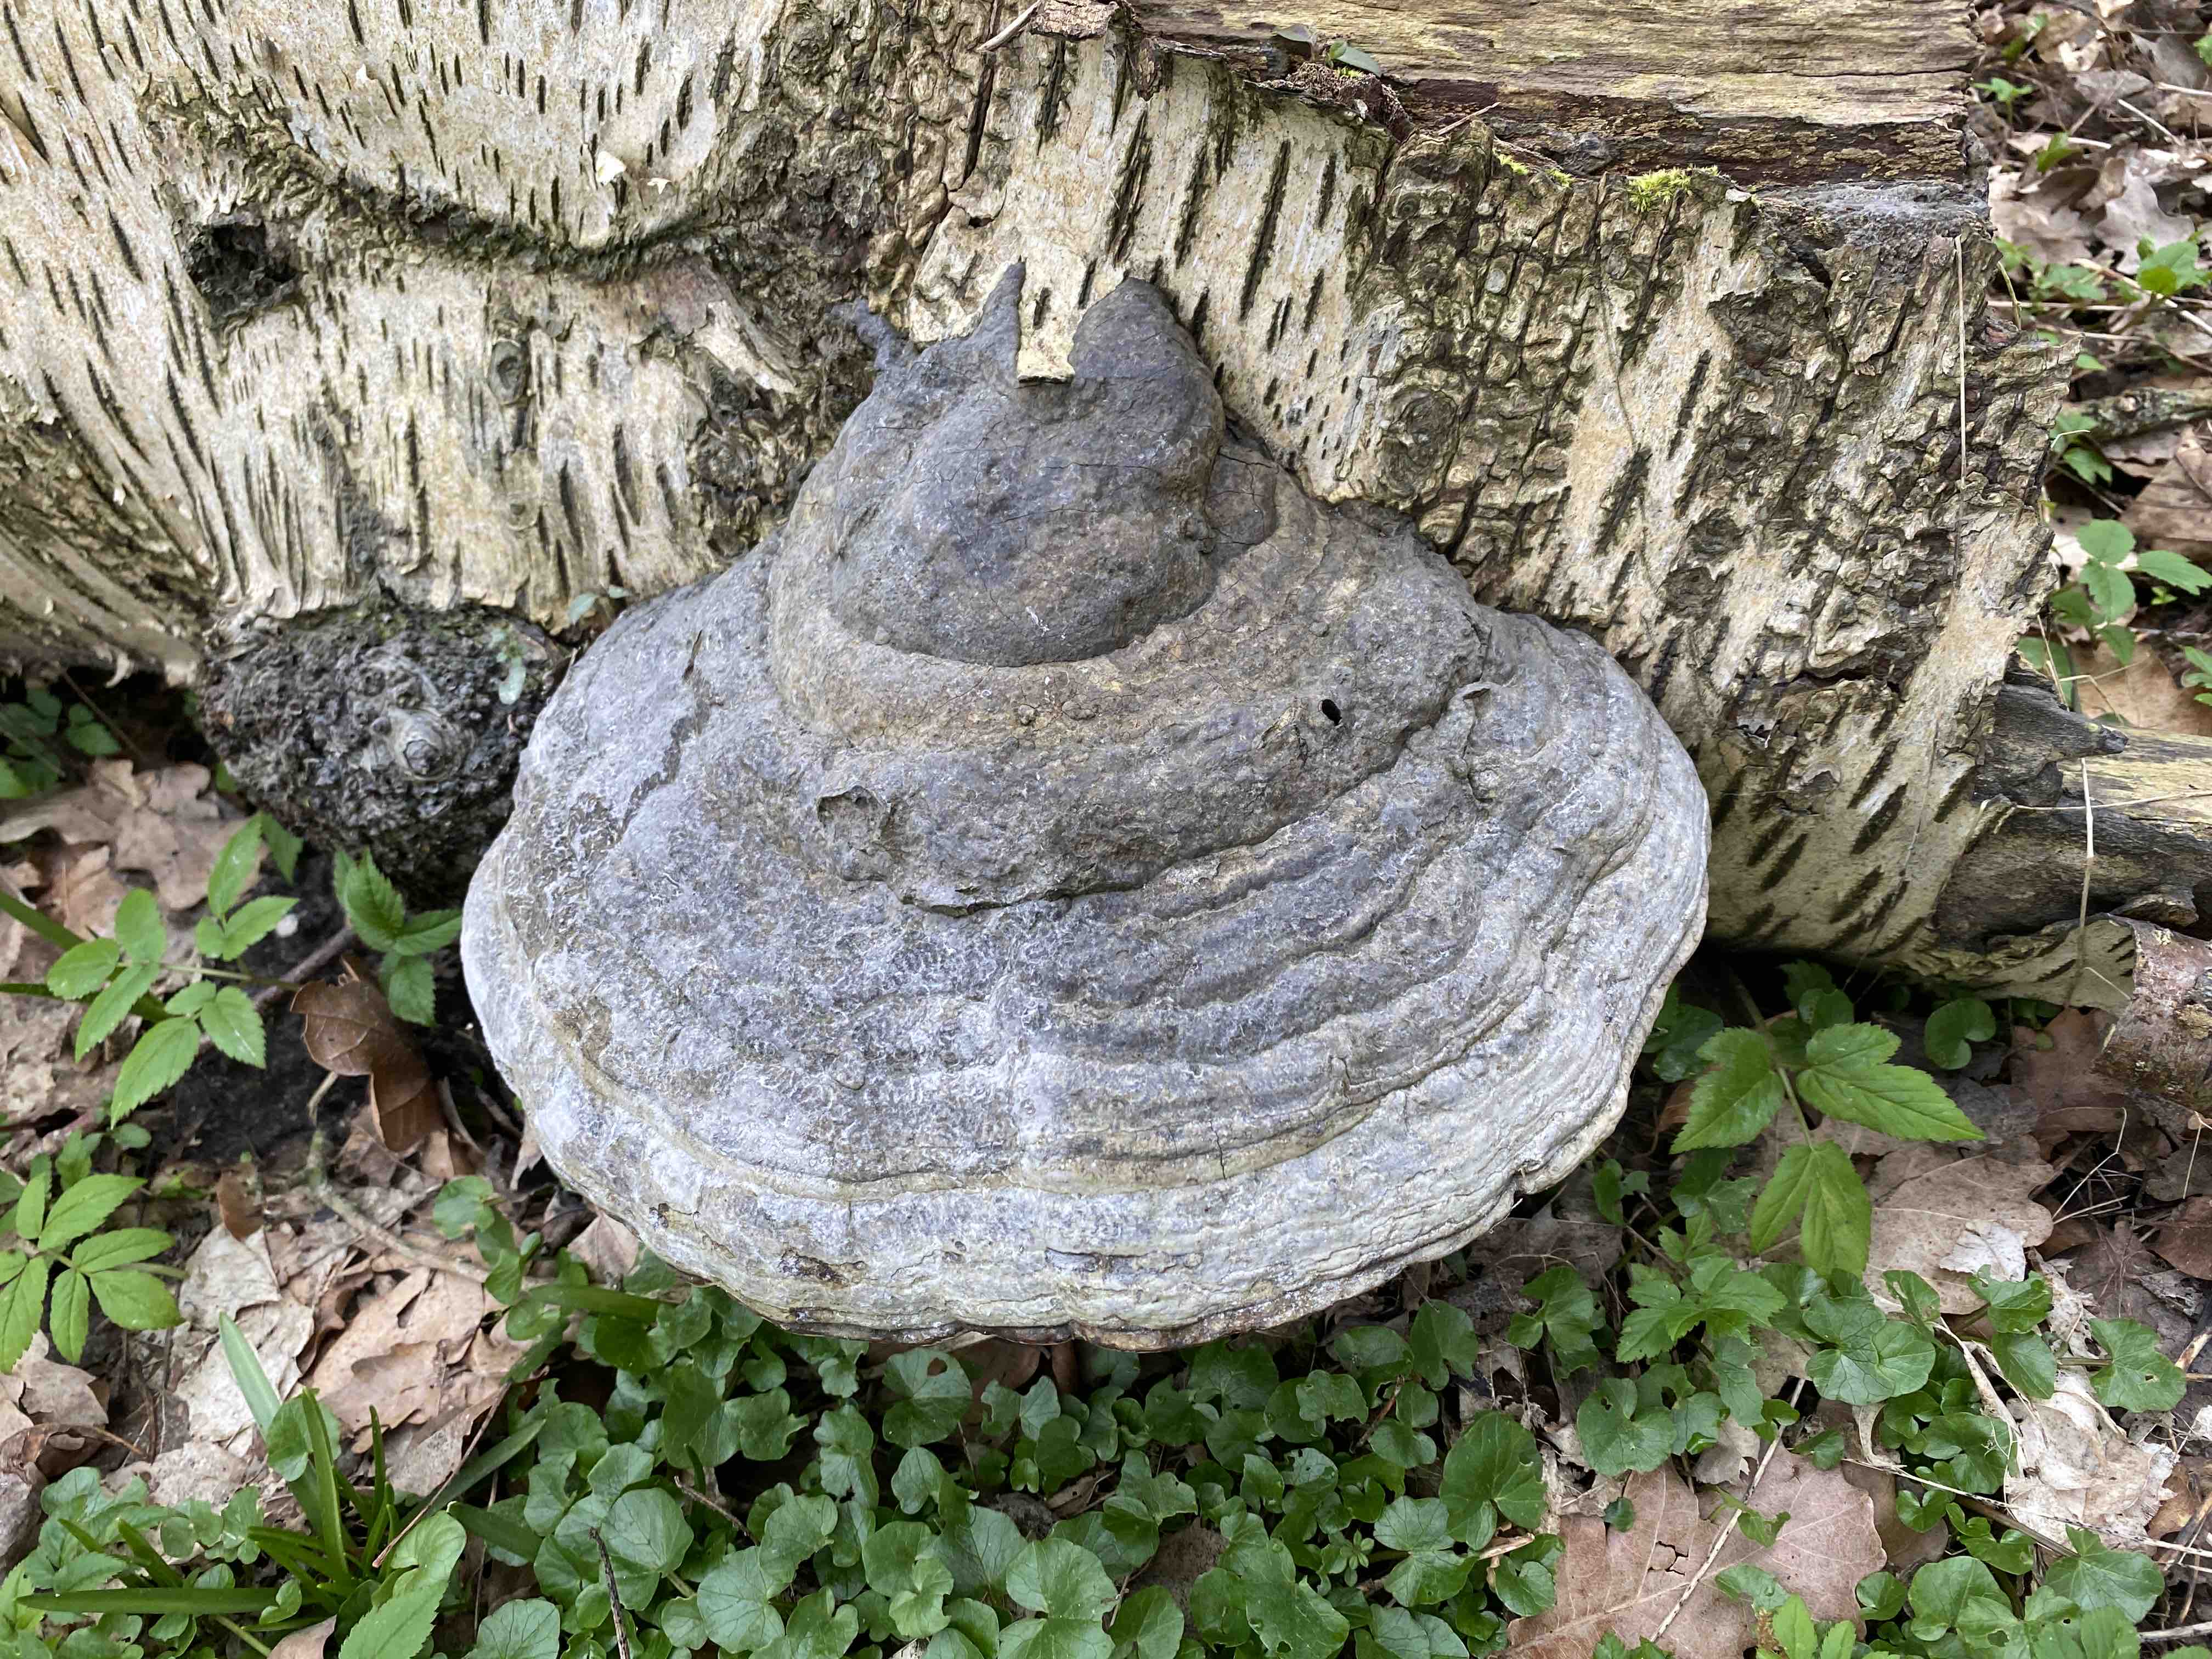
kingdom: Fungi
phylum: Basidiomycota
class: Agaricomycetes
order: Polyporales
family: Polyporaceae
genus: Fomes
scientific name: Fomes fomentarius
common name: tøndersvamp
